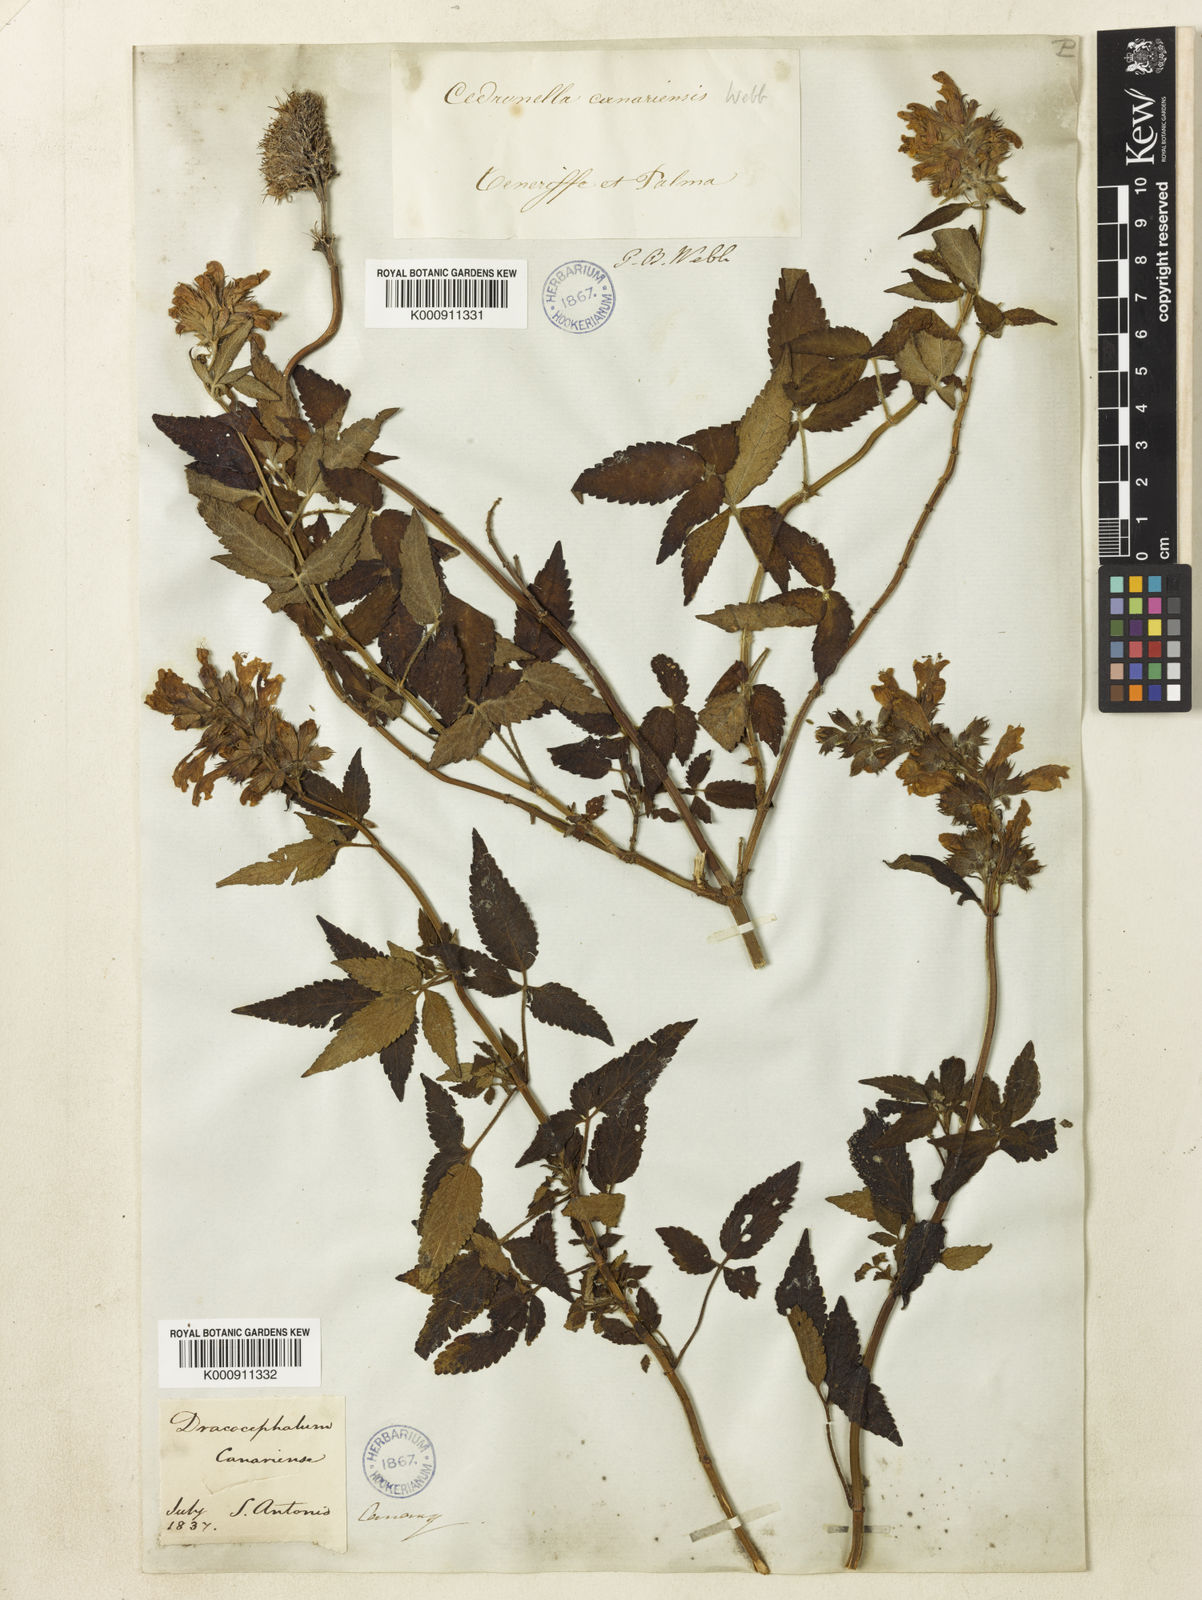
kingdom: Plantae
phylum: Tracheophyta
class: Magnoliopsida
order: Lamiales
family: Lamiaceae
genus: Cedronella
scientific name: Cedronella canariensis
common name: Canary islands balm
